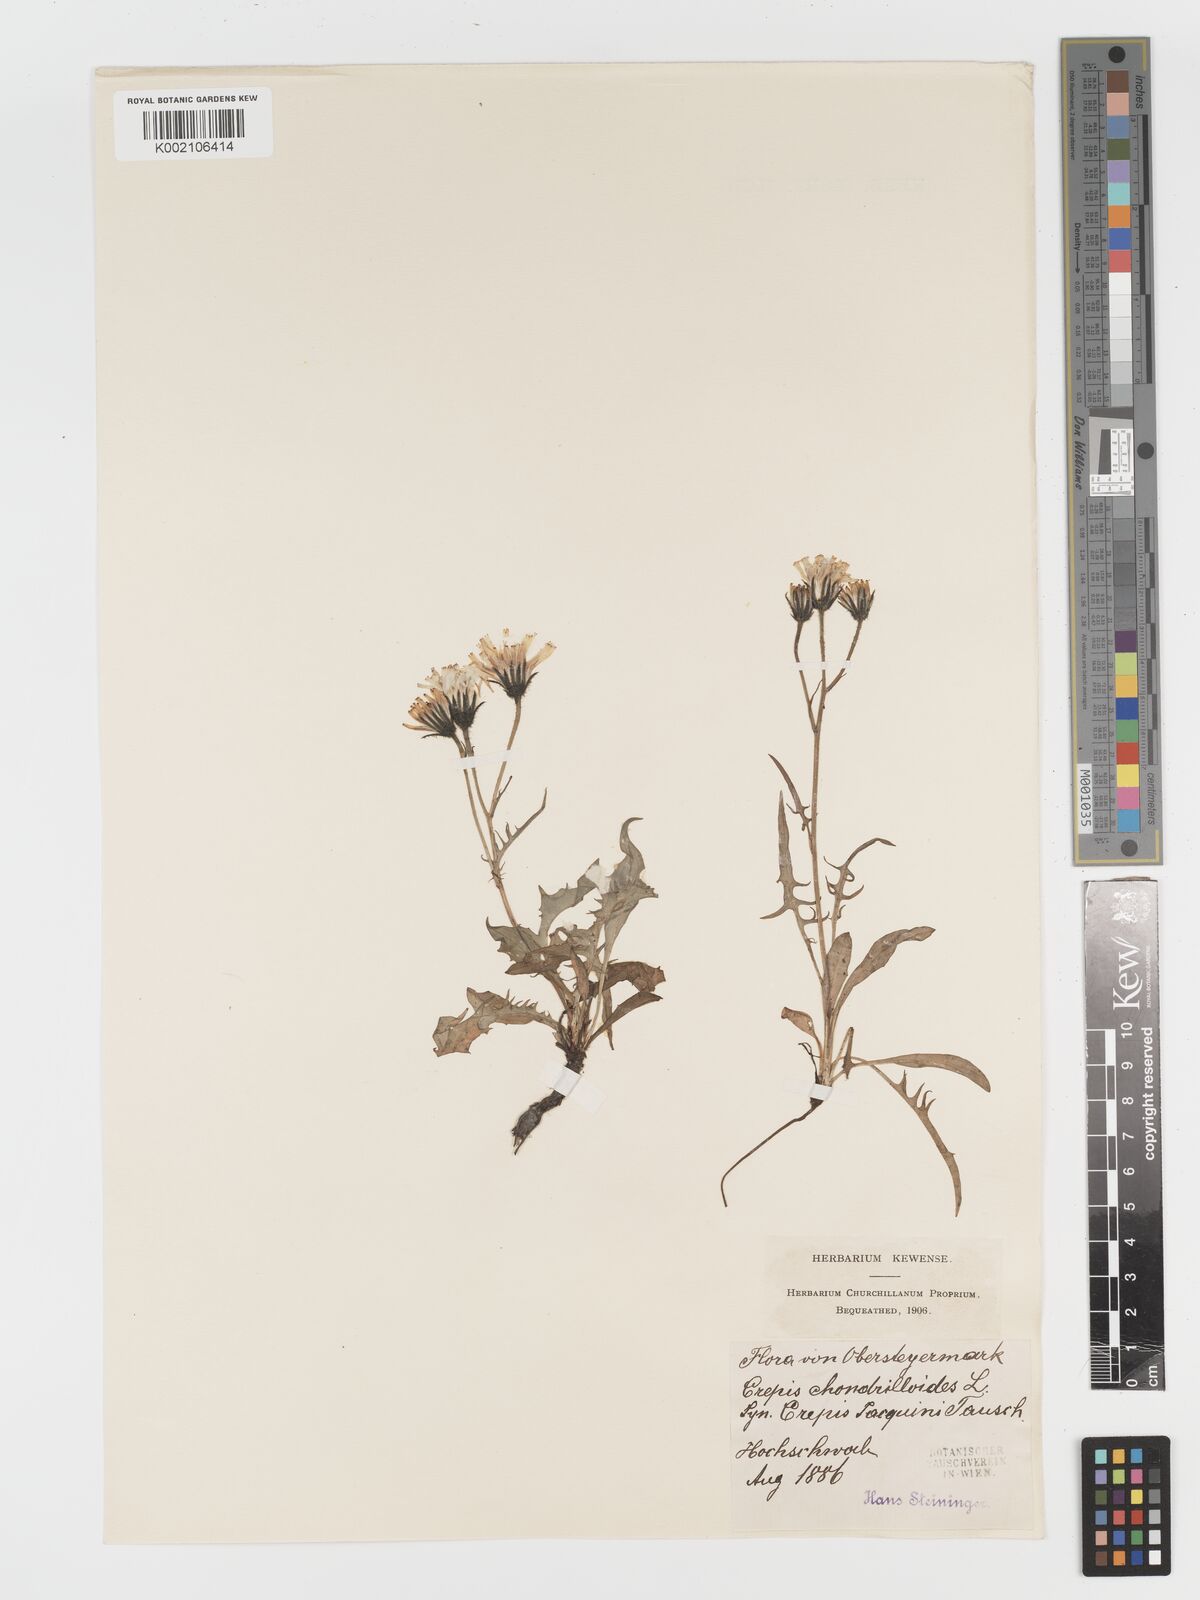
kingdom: Plantae
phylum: Tracheophyta
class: Magnoliopsida
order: Asterales
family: Asteraceae
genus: Crepis
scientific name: Crepis jacquinii
